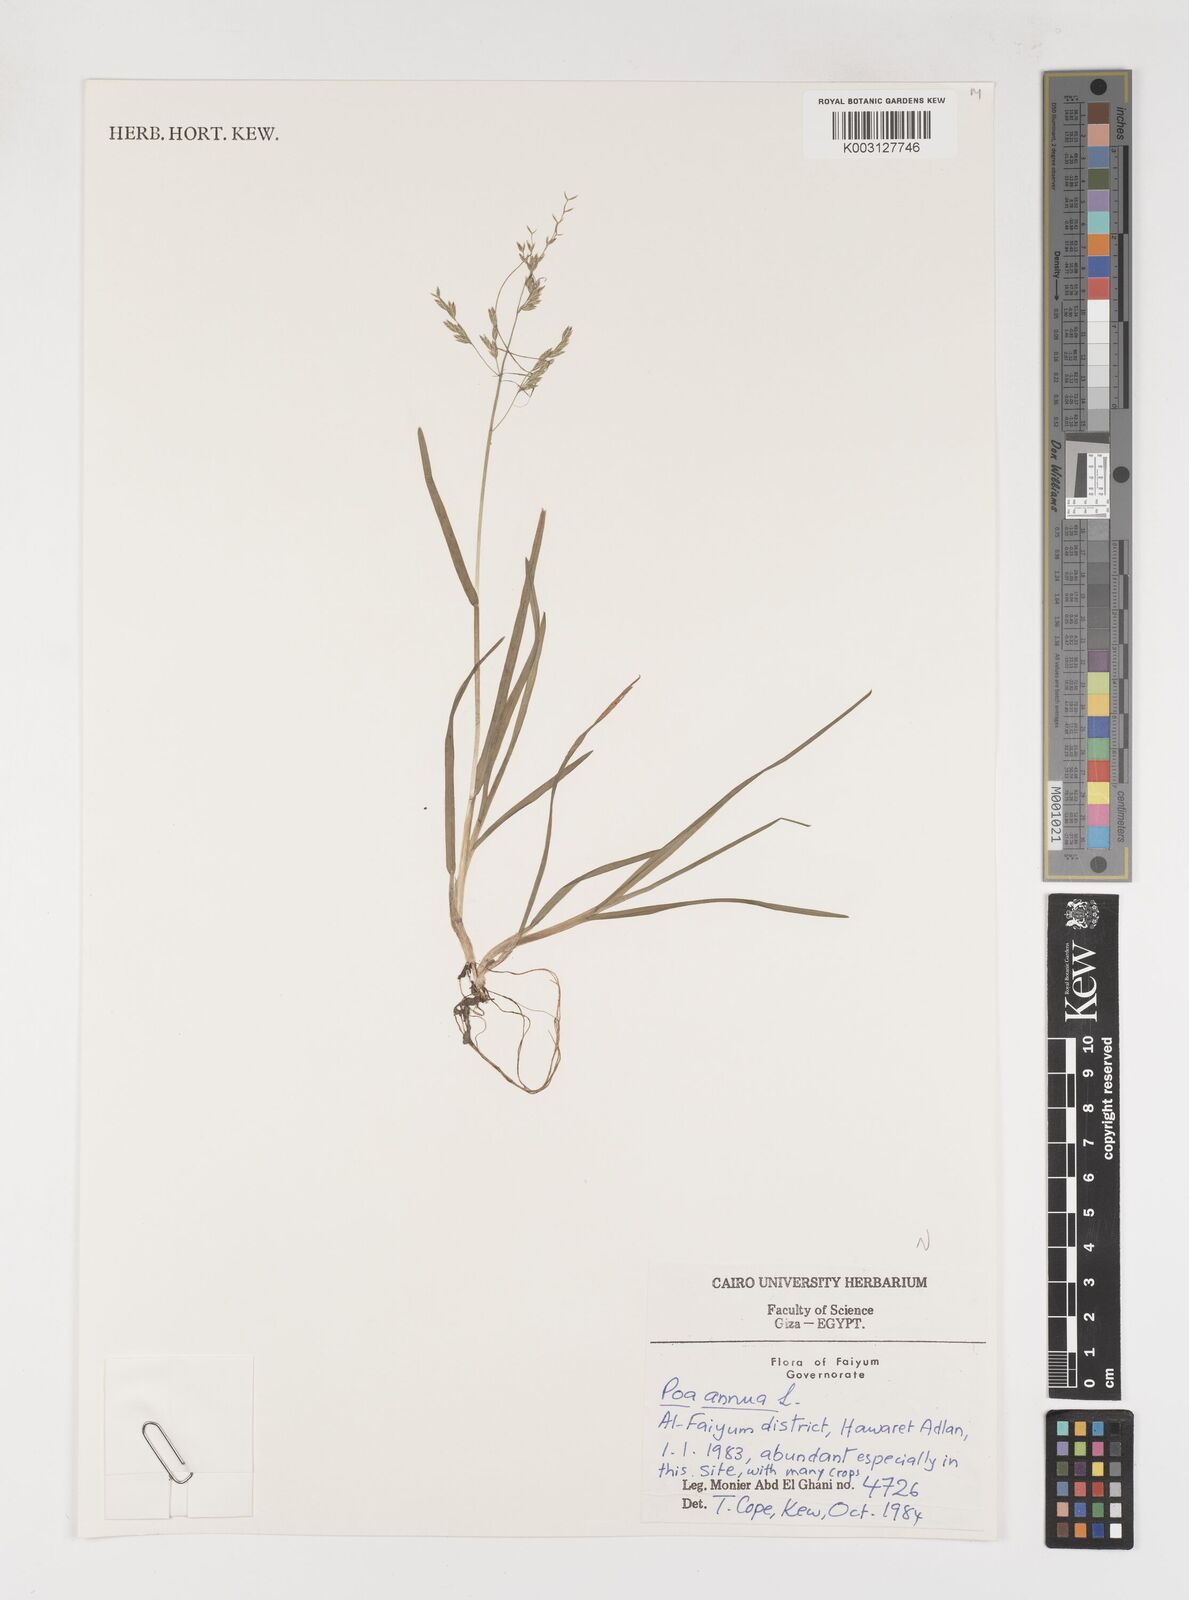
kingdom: Plantae
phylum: Tracheophyta
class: Liliopsida
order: Poales
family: Poaceae
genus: Poa
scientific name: Poa annua
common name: Annual bluegrass
